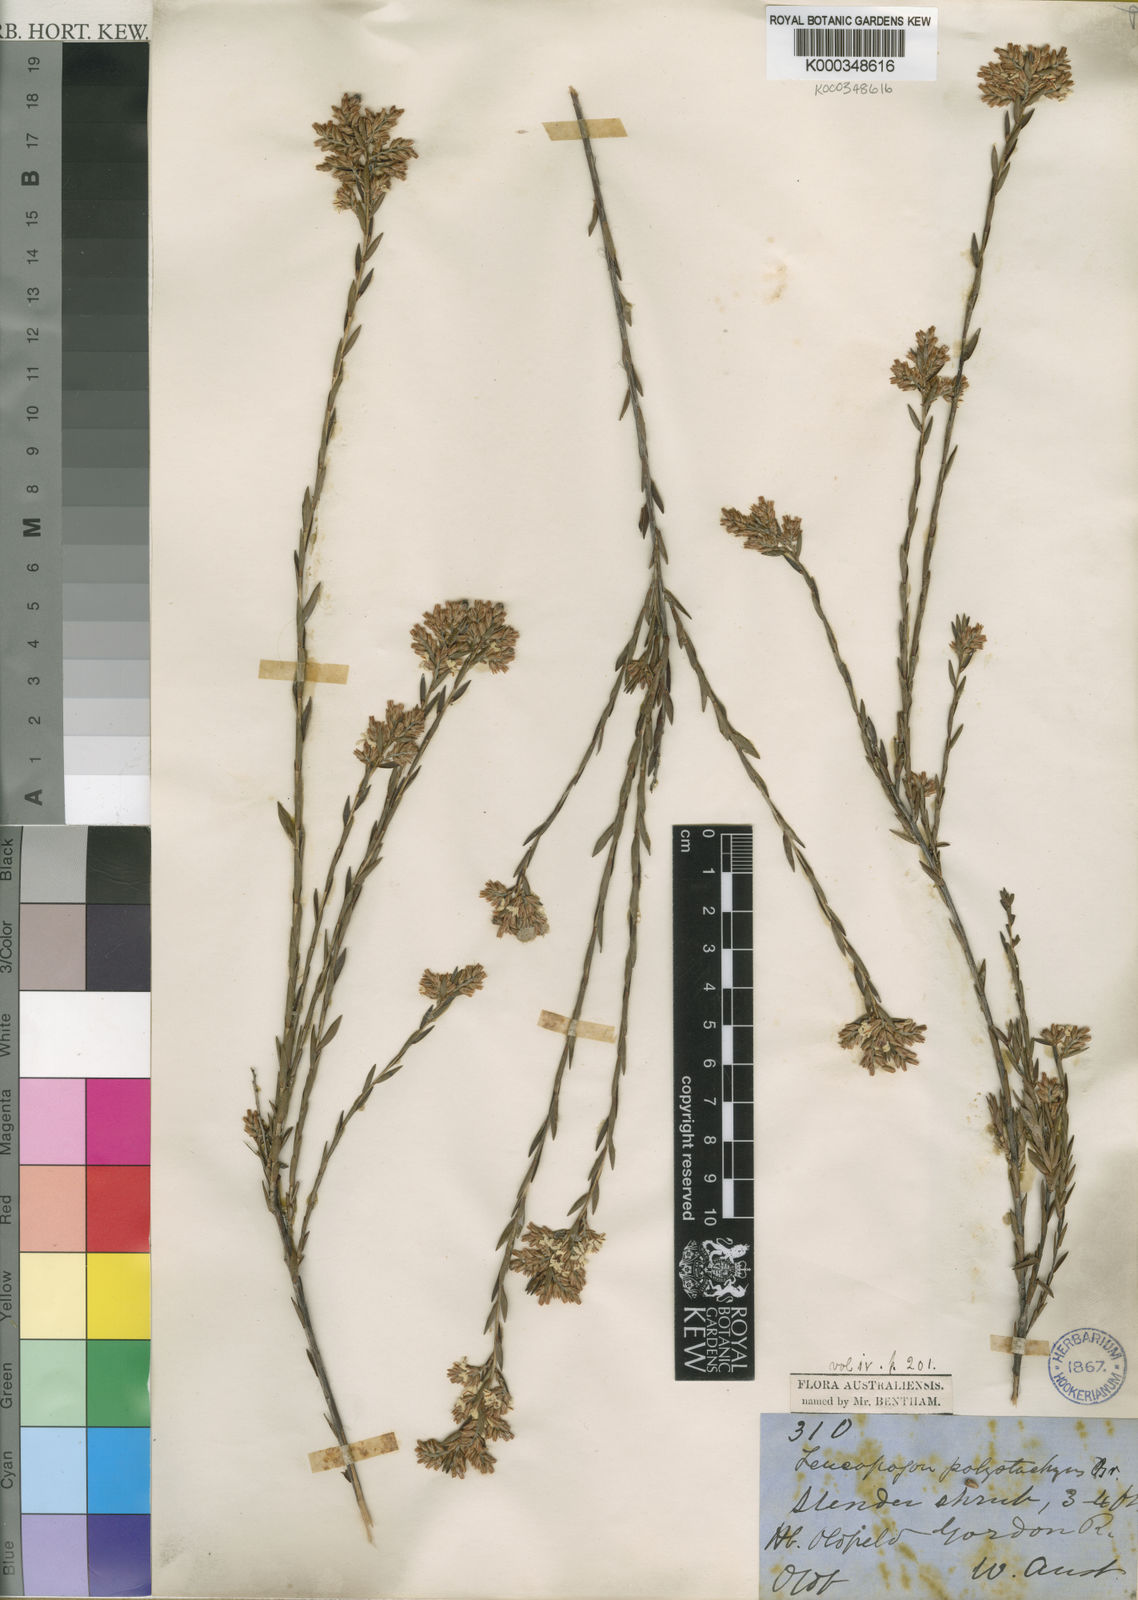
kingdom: Plantae
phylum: Tracheophyta
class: Magnoliopsida
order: Ericales
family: Ericaceae
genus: Leucopogon
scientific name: Leucopogon polystachyus
